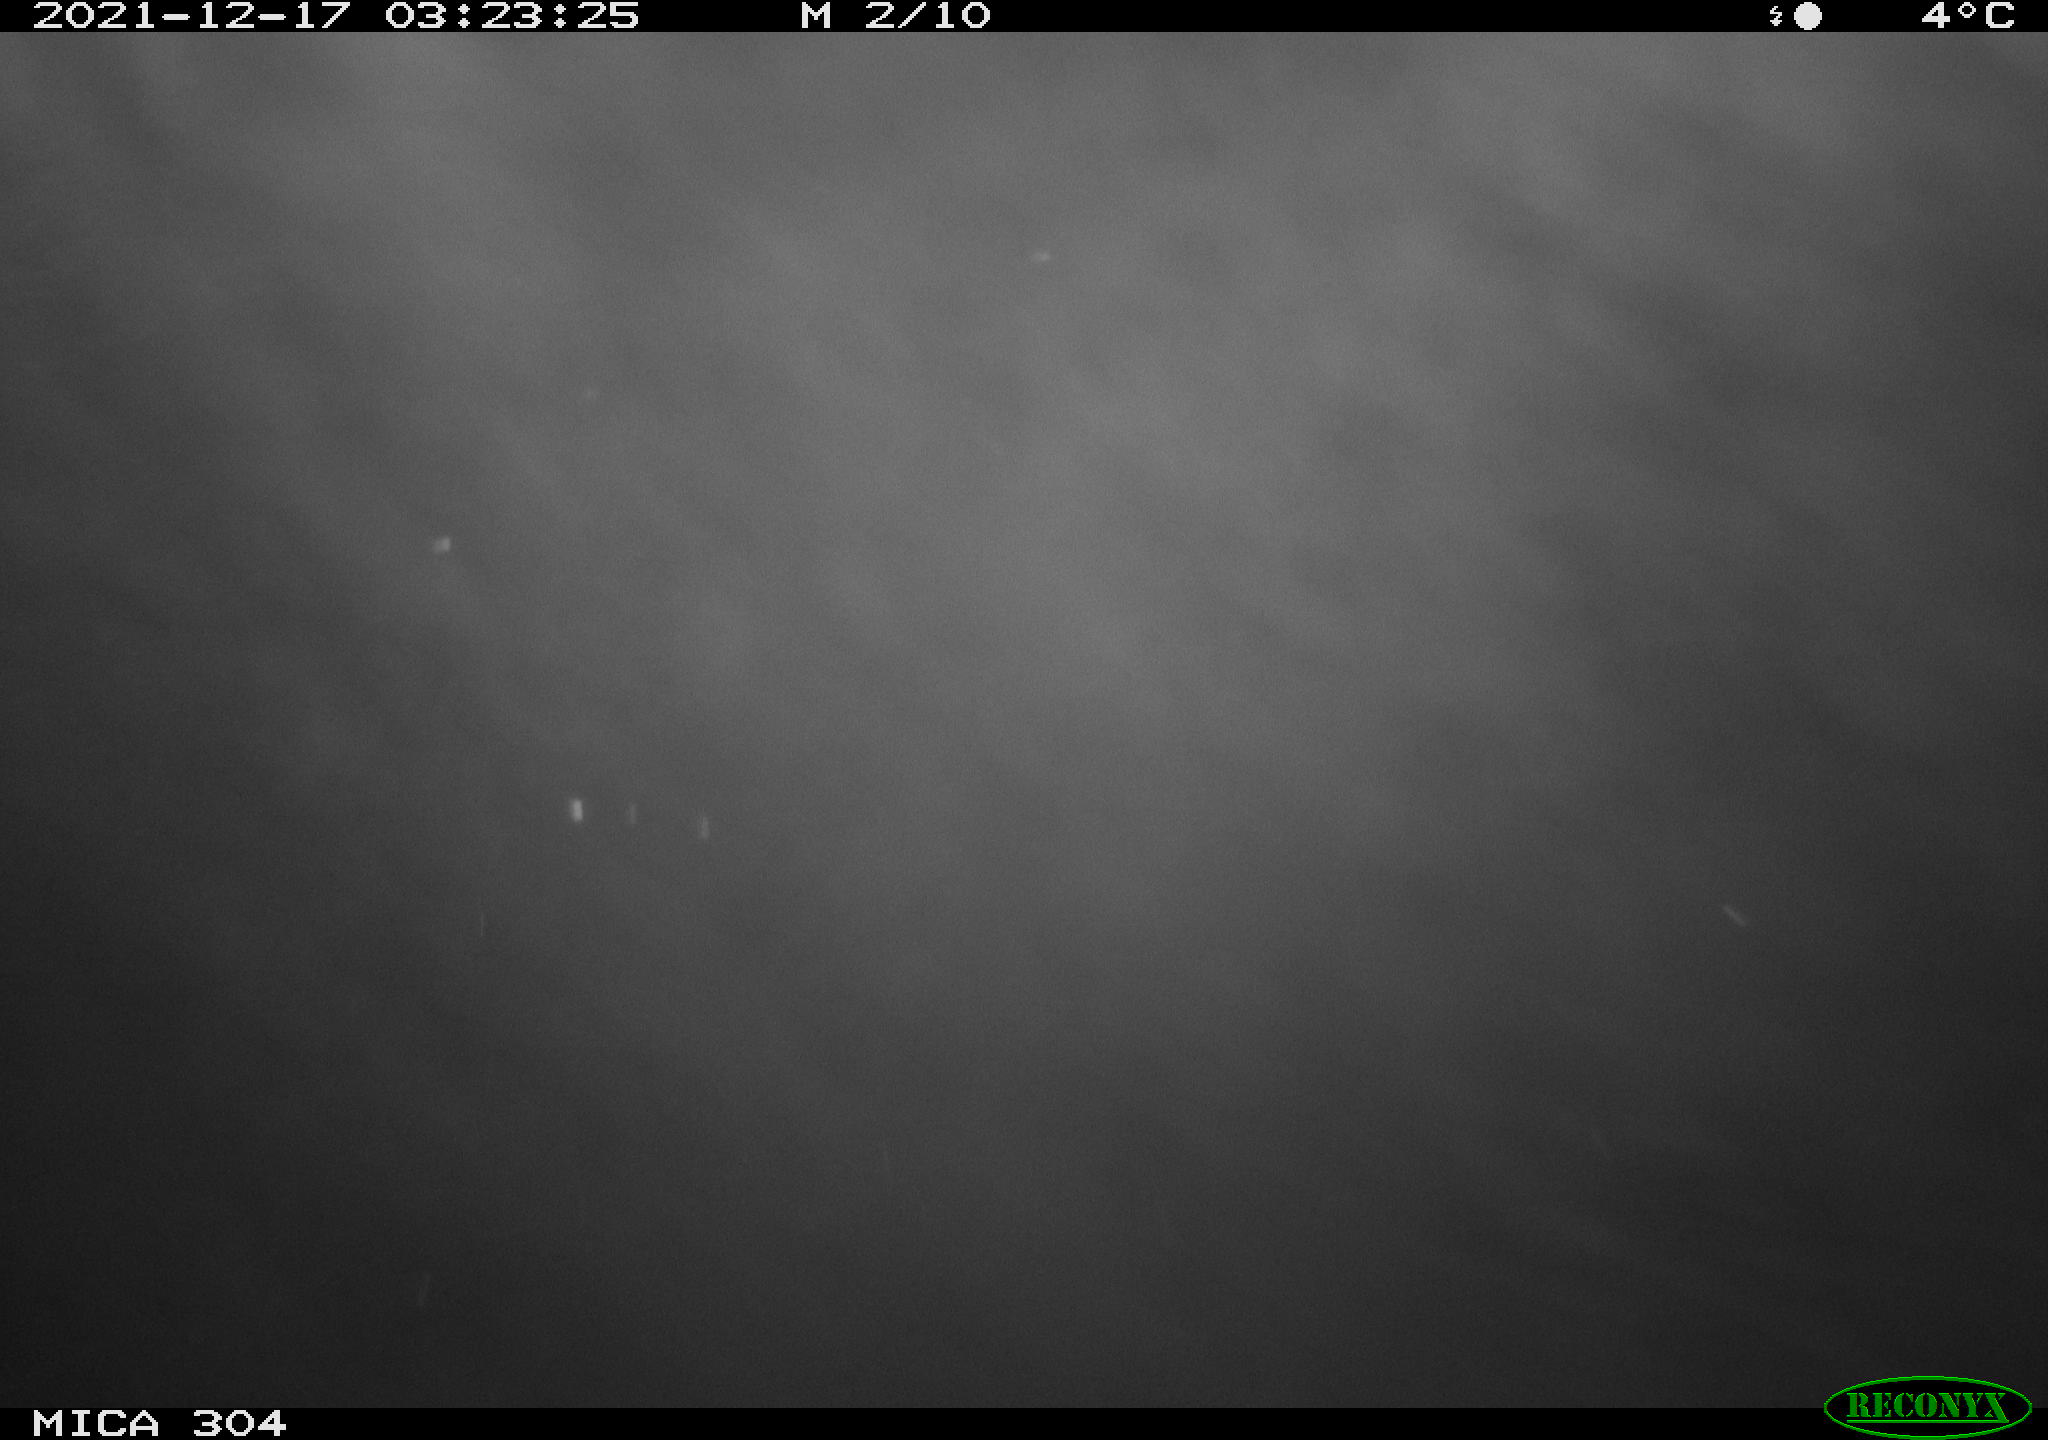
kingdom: Animalia
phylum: Chordata
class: Mammalia
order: Rodentia
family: Muridae
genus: Rattus
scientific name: Rattus norvegicus
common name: Brown rat
